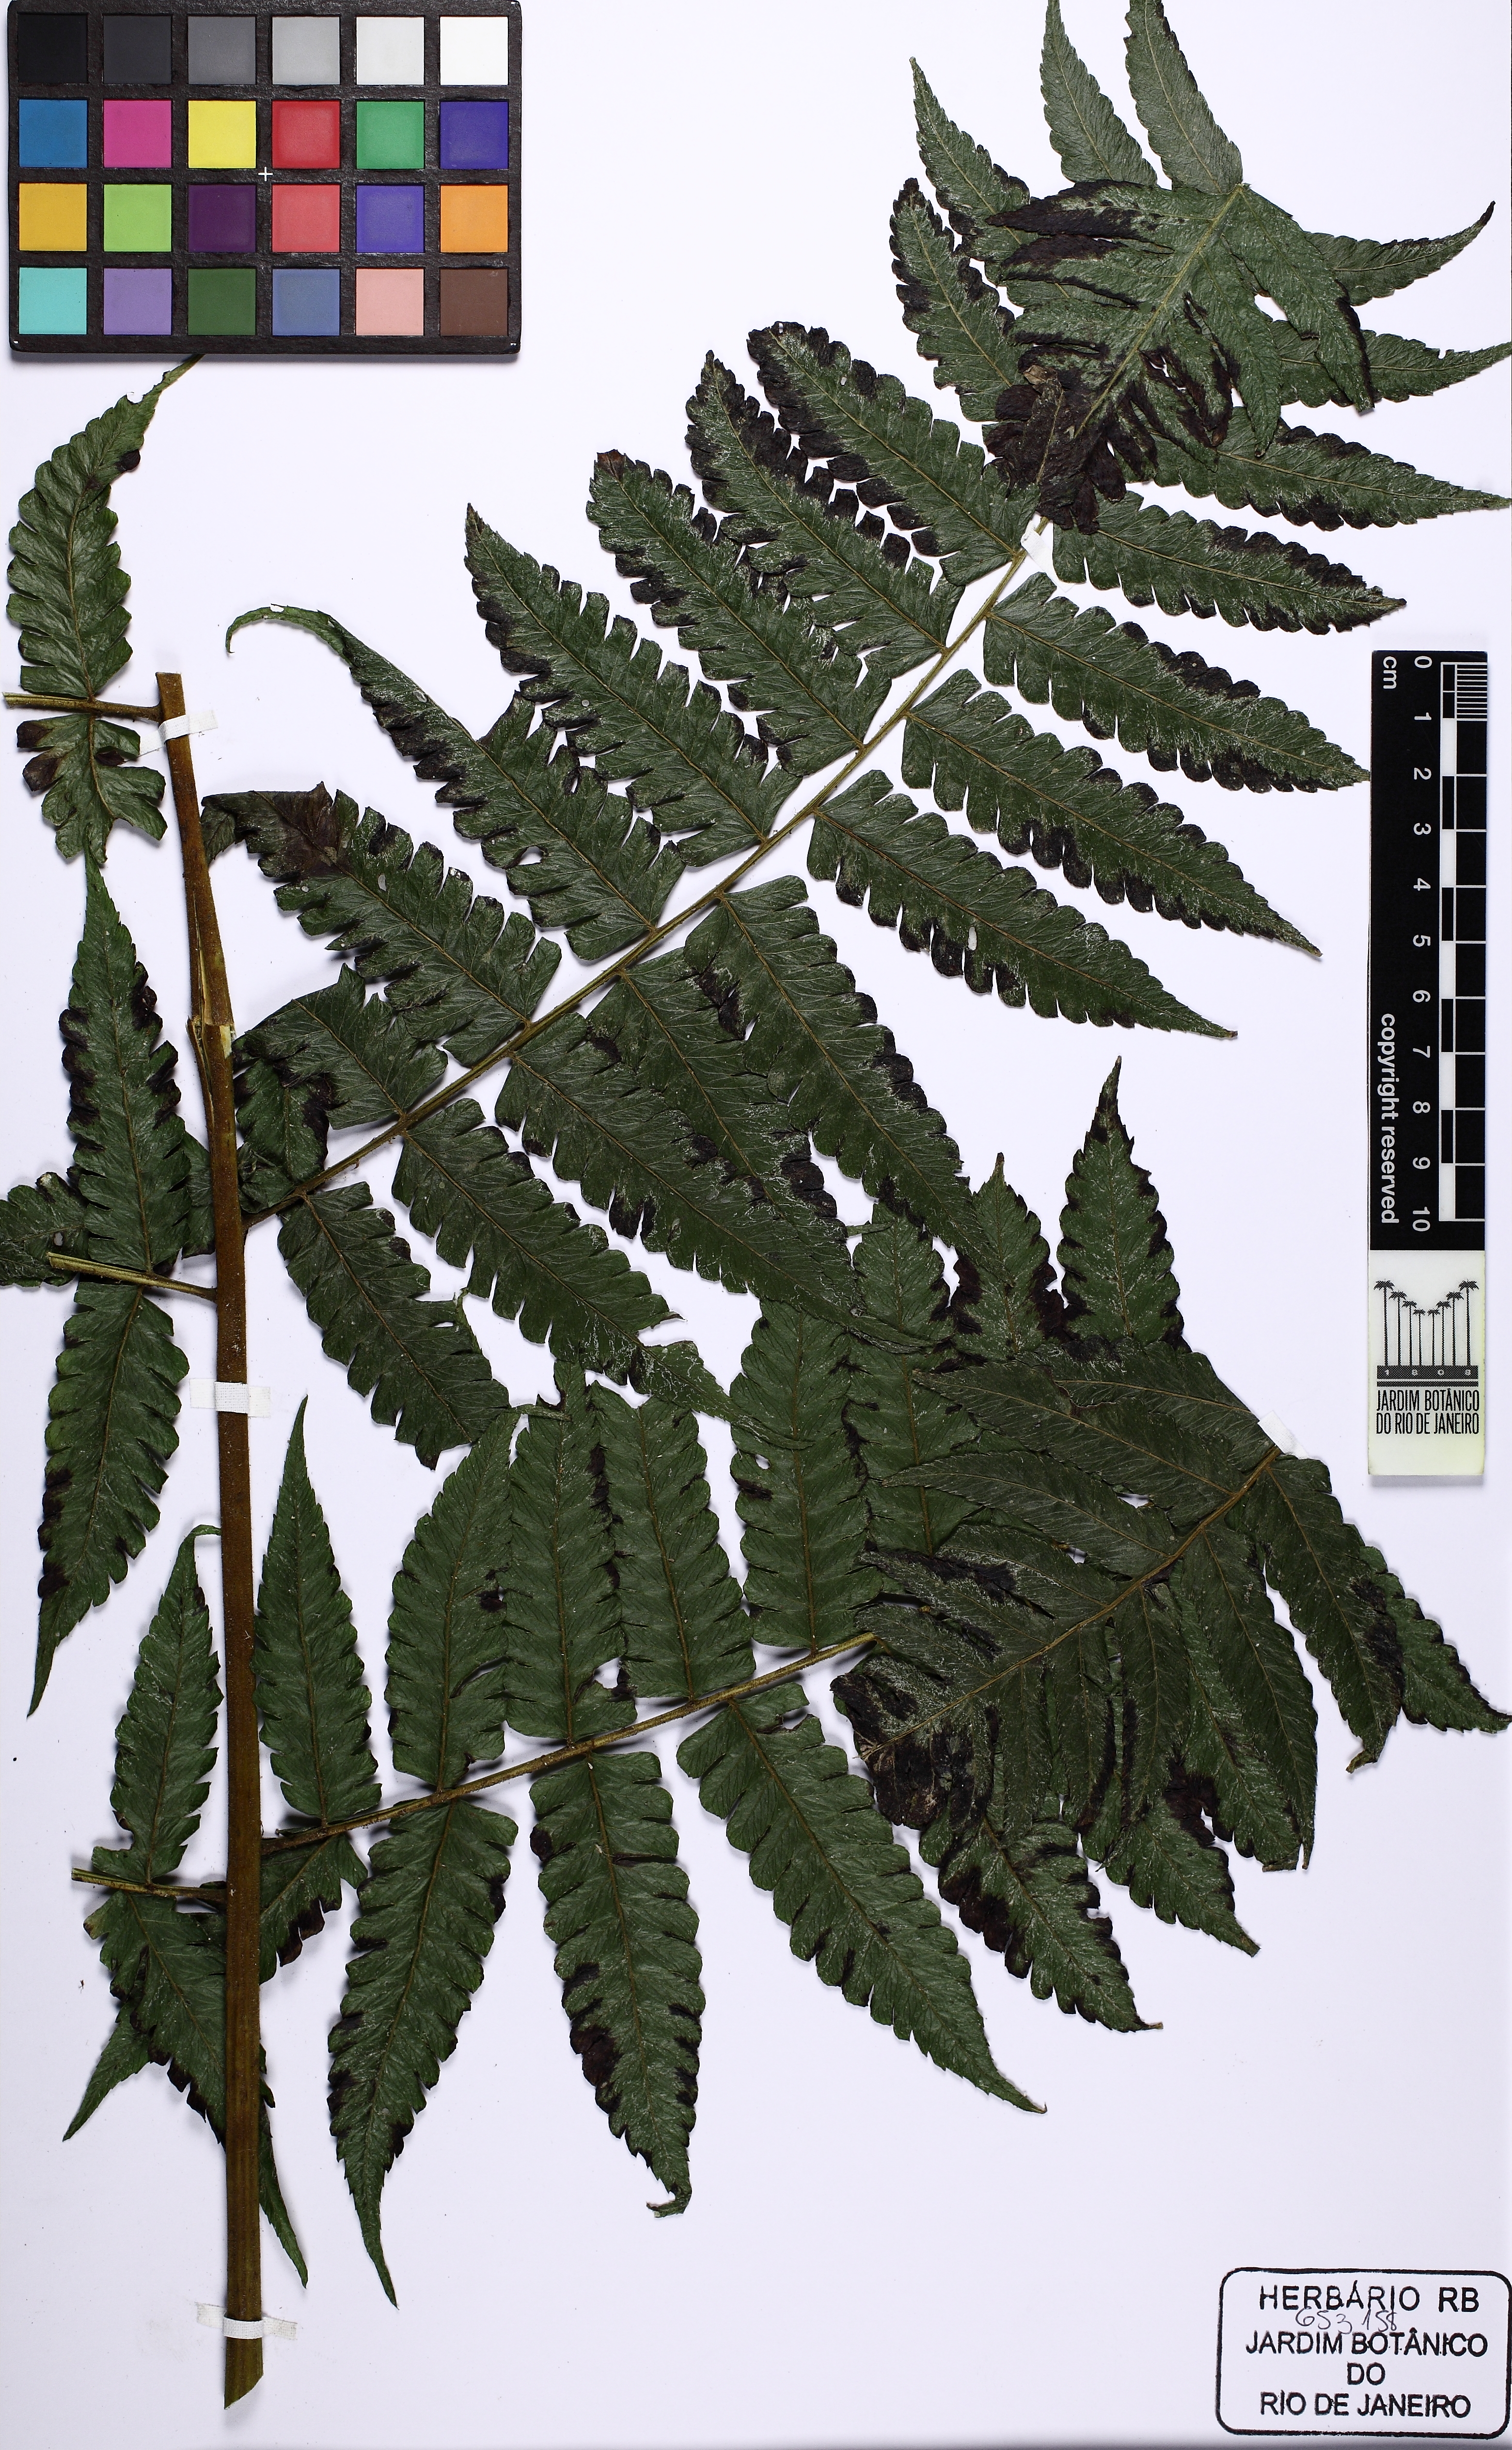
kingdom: Plantae
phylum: Tracheophyta
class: Polypodiopsida
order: Polypodiales
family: Athyriaceae
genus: Diplazium
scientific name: Diplazium expansum
